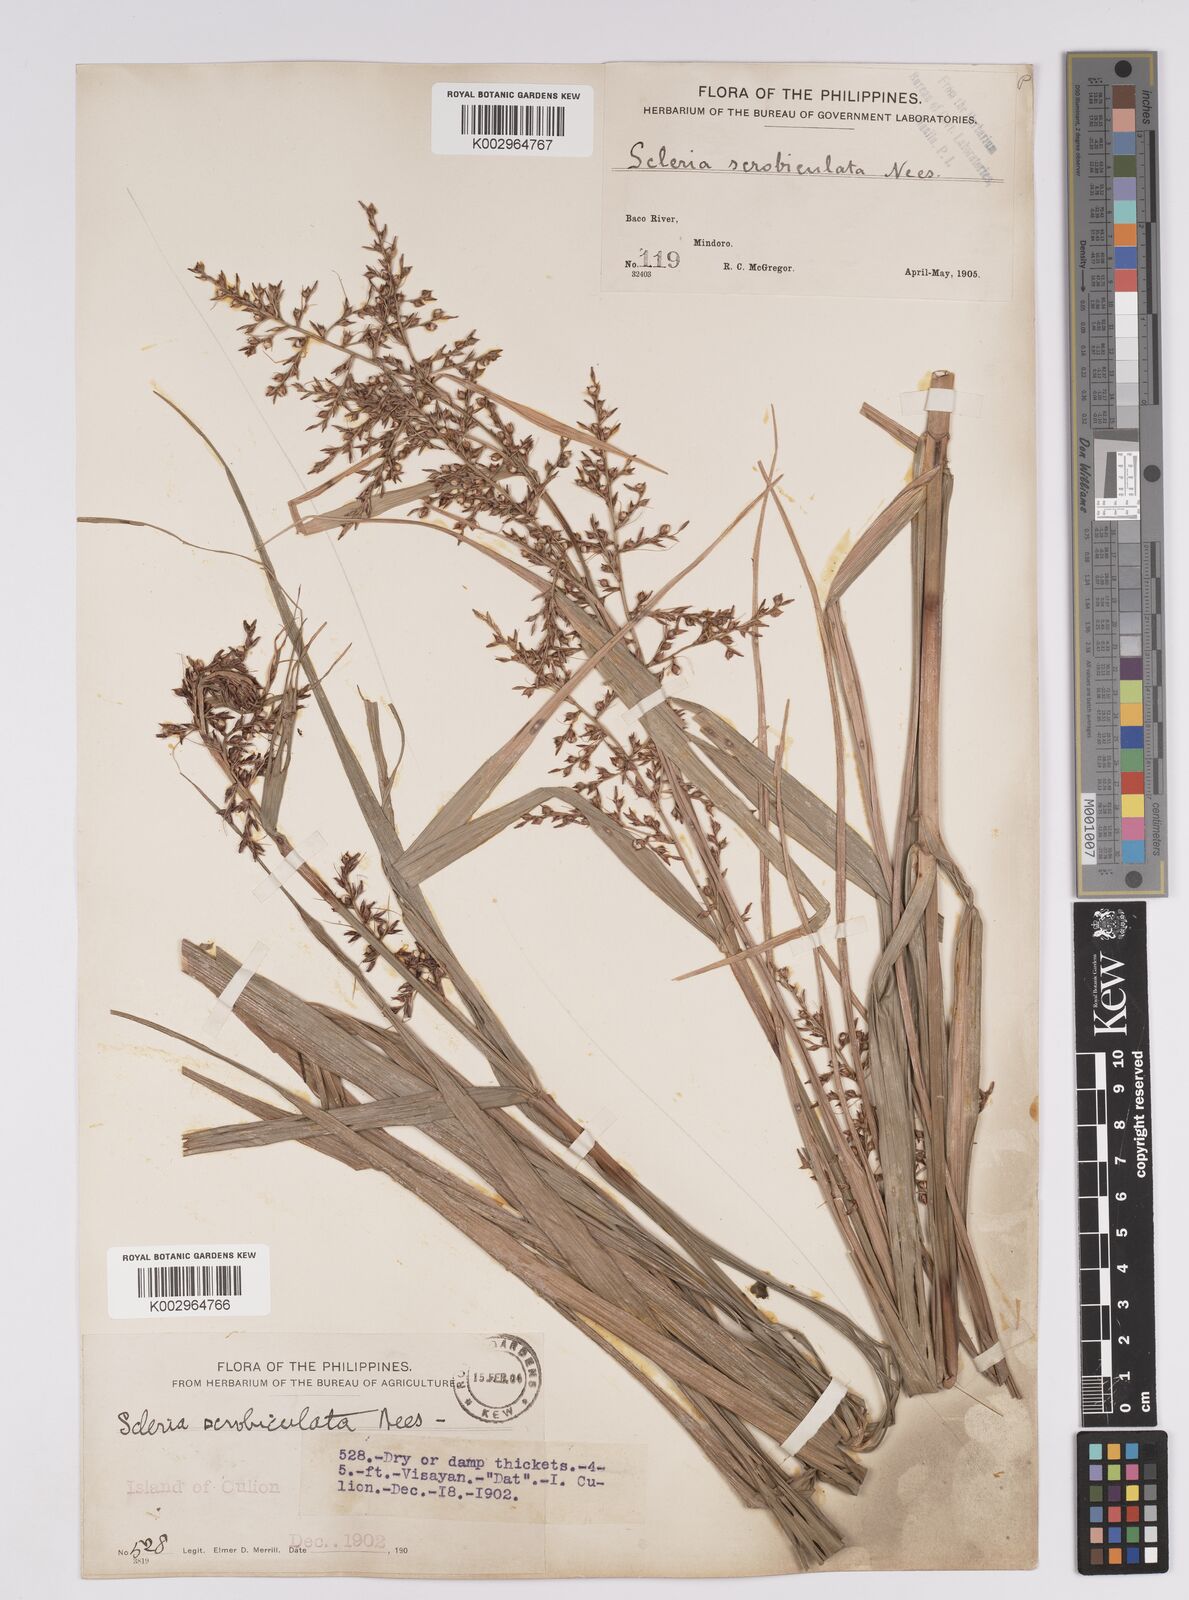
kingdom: Plantae
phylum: Tracheophyta
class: Liliopsida
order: Poales
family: Cyperaceae
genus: Scleria
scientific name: Scleria scrobiculata
